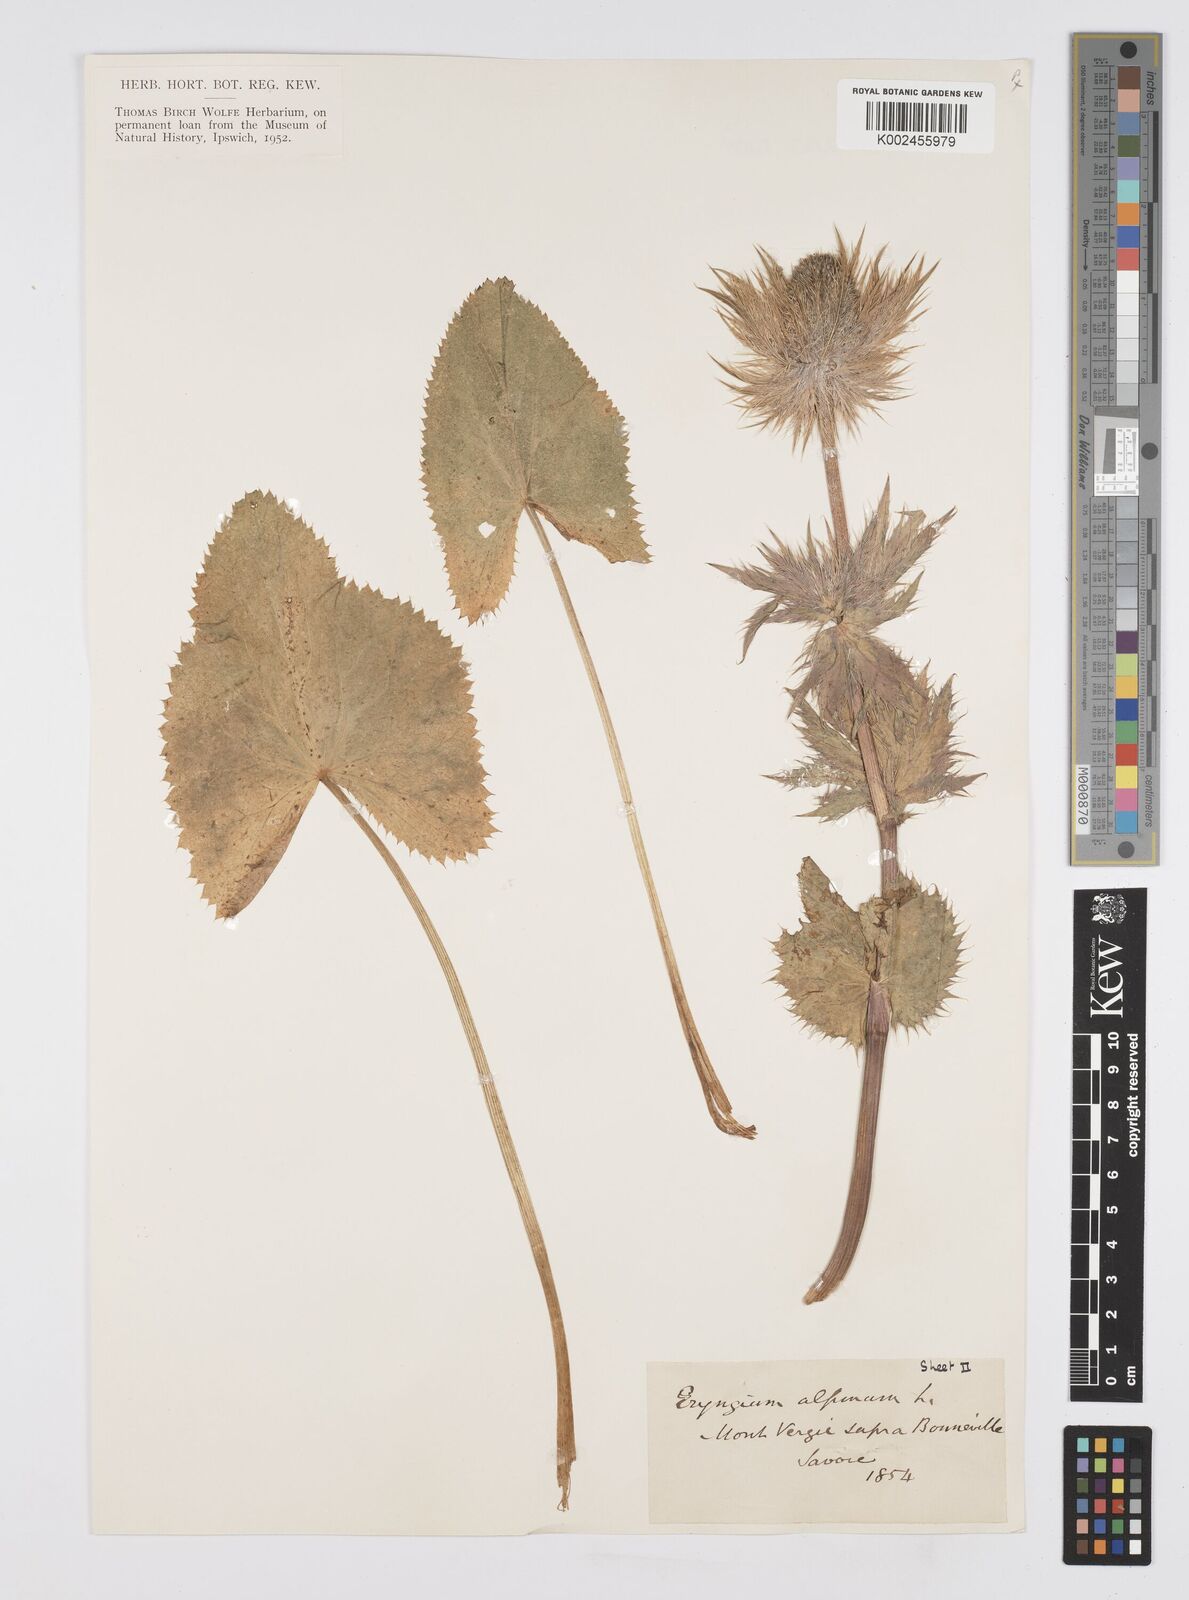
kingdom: Plantae
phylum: Tracheophyta
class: Magnoliopsida
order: Apiales
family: Apiaceae
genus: Eryngium
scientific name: Eryngium alpinum
